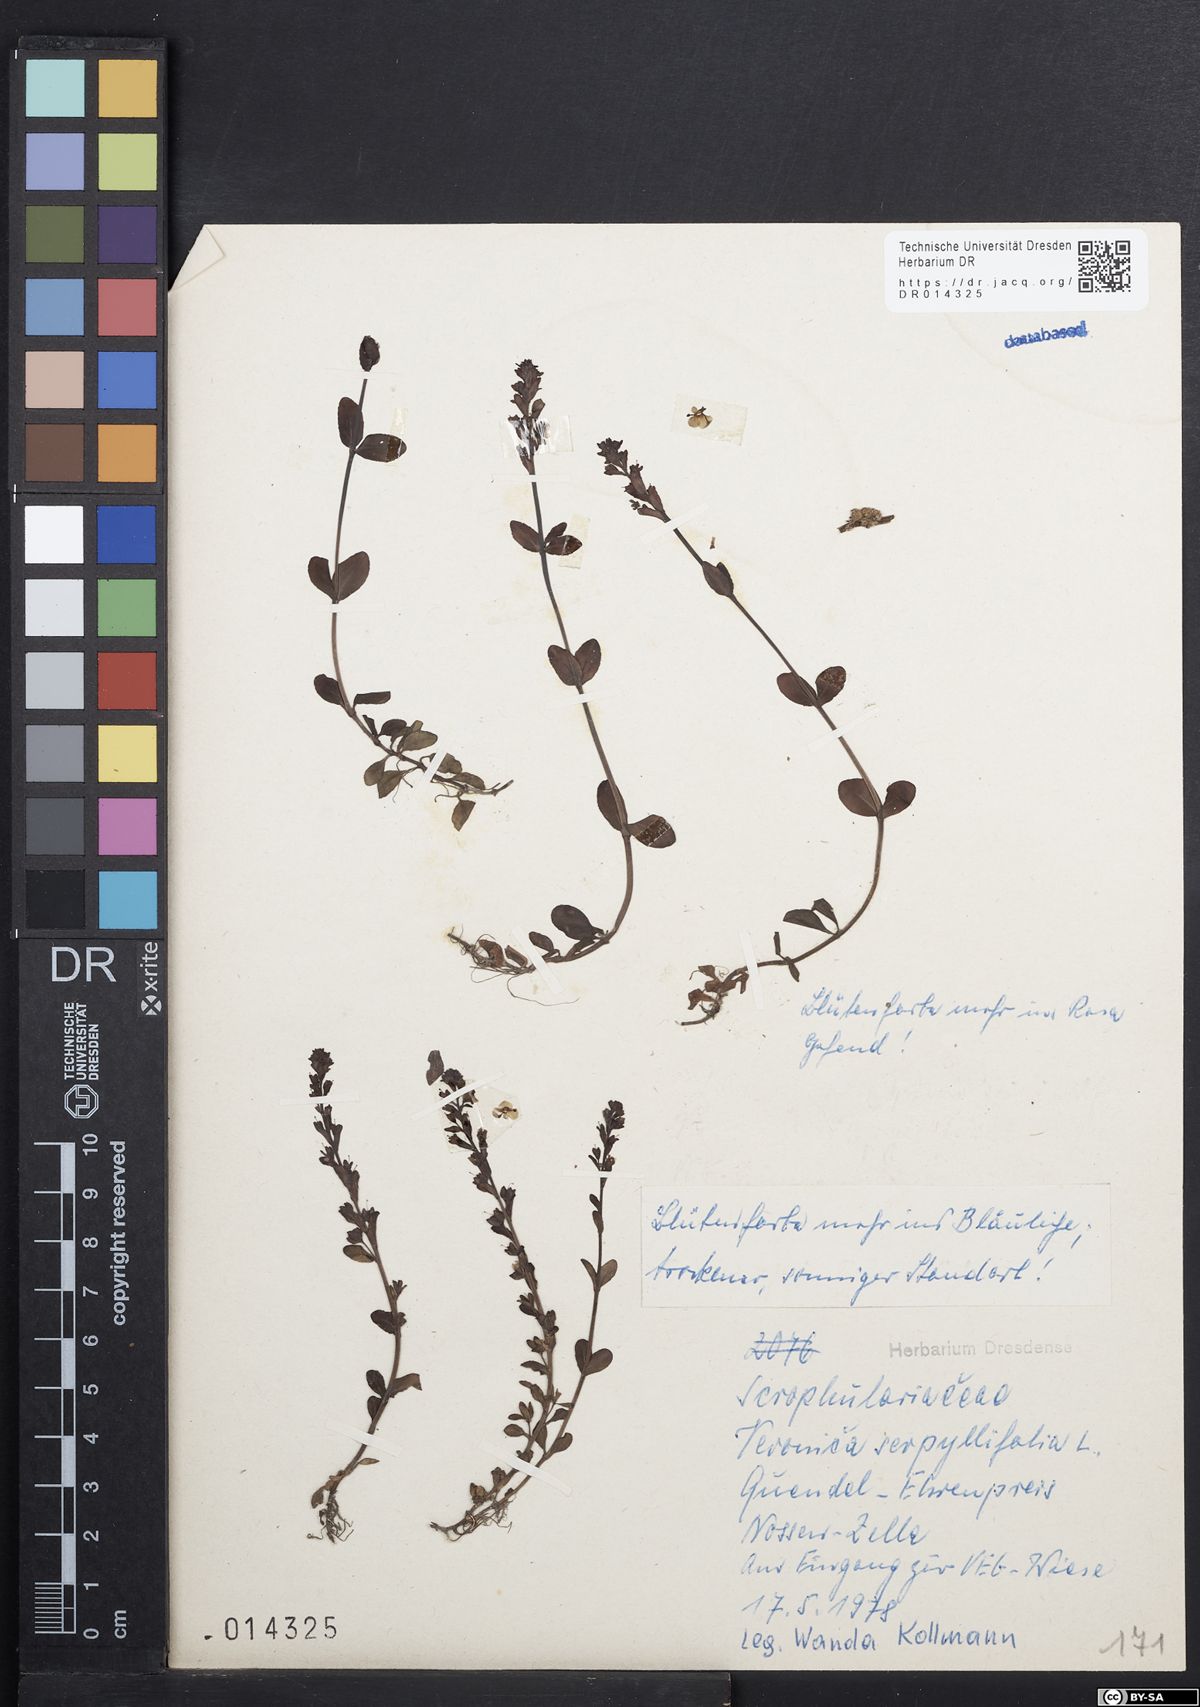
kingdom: Plantae
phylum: Tracheophyta
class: Magnoliopsida
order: Lamiales
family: Plantaginaceae
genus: Veronica
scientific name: Veronica serpyllifolia
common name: Thyme-leaved speedwell
